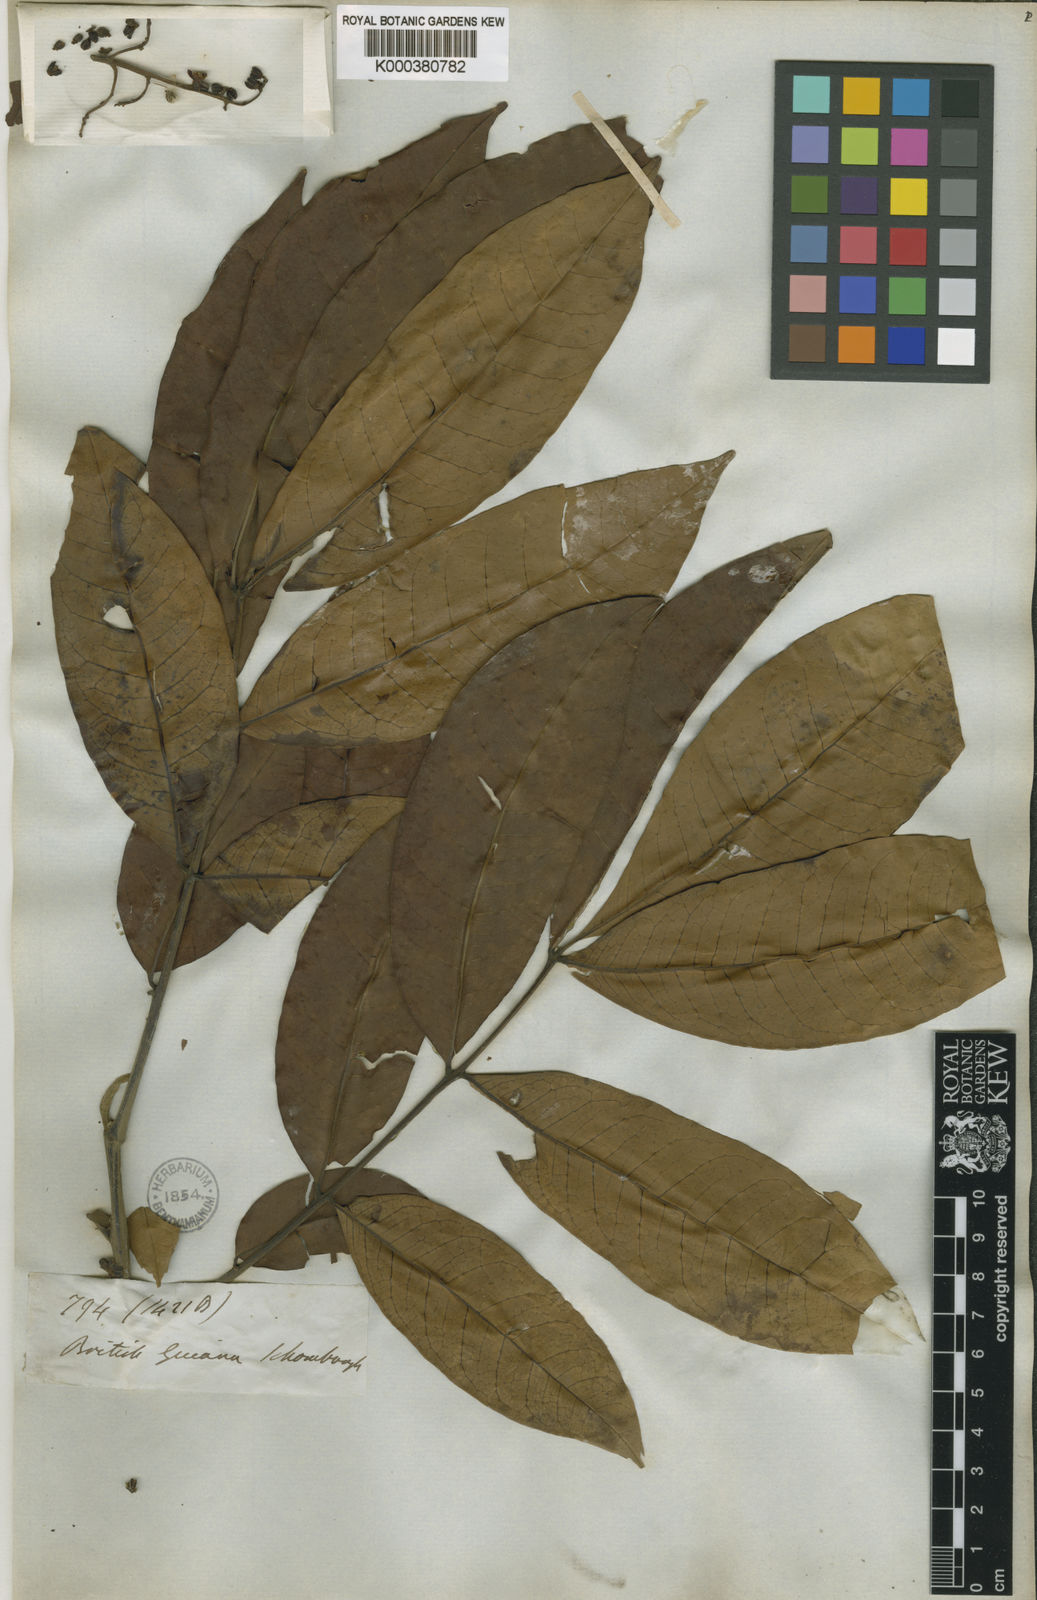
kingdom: Plantae
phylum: Tracheophyta
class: Magnoliopsida
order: Sapindales
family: Meliaceae
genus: Trichilia
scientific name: Trichilia rubra
